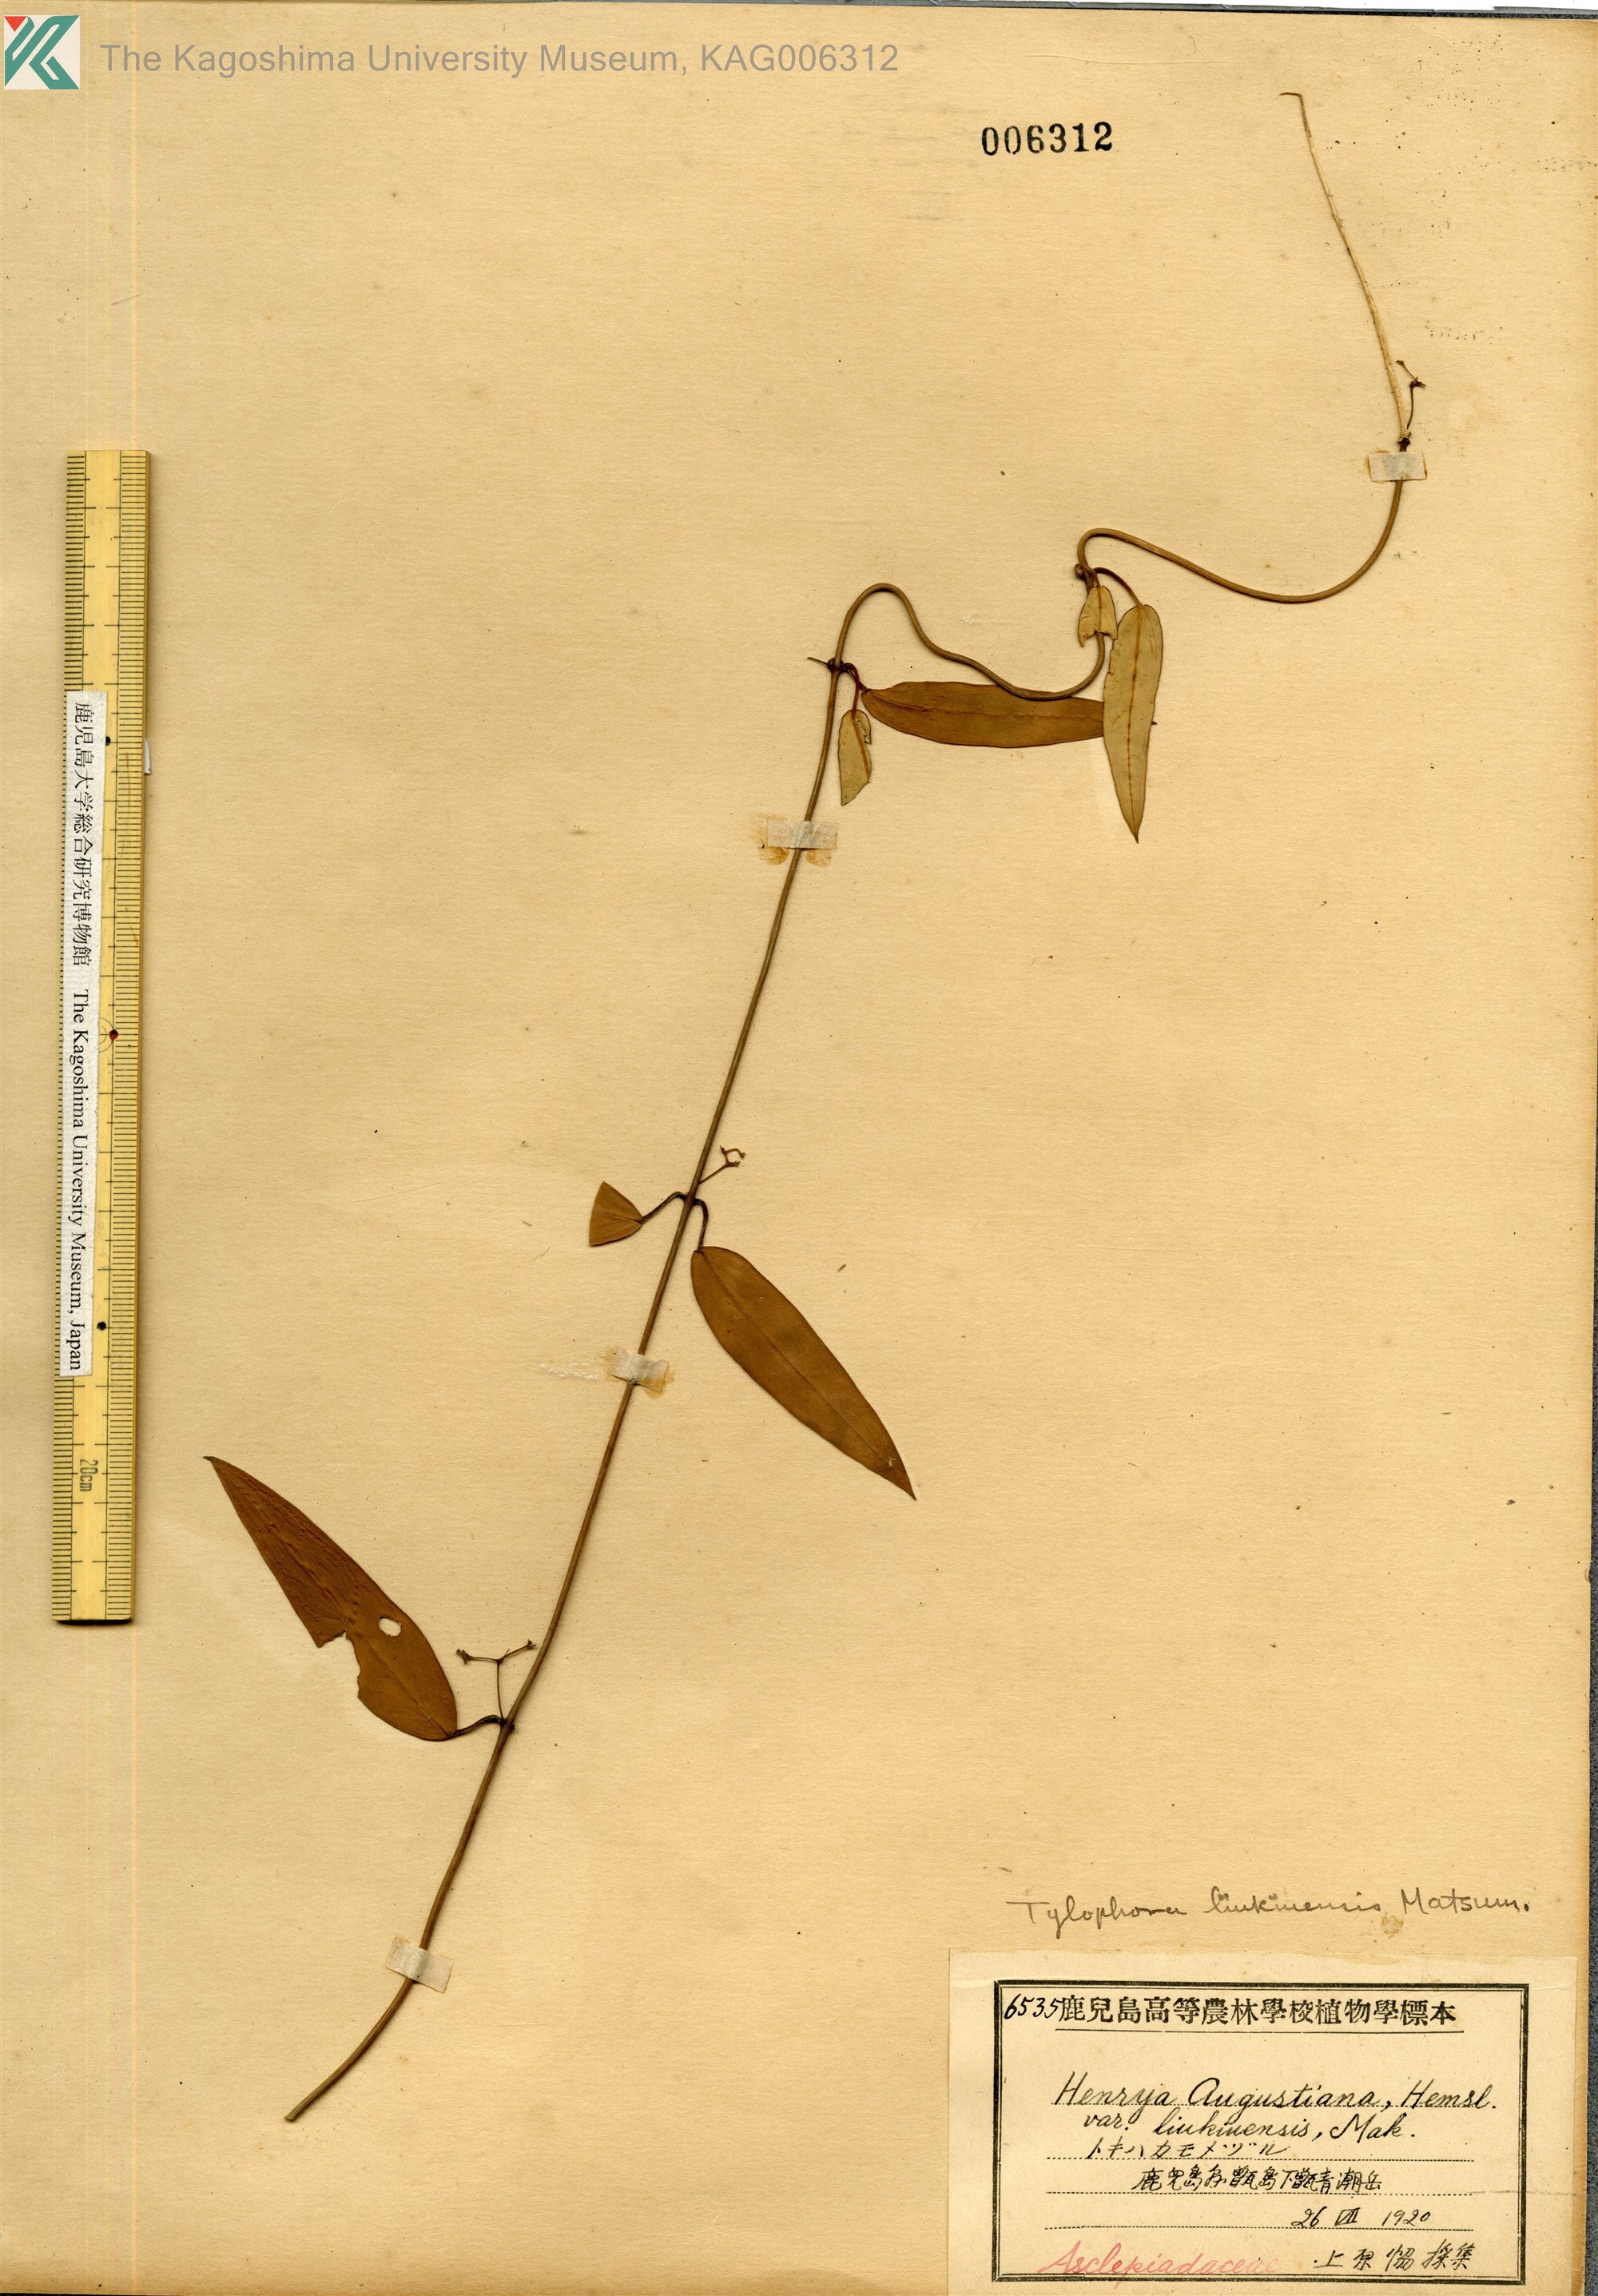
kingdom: Plantae
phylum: Tracheophyta
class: Magnoliopsida
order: Gentianales
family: Apocynaceae
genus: Vincetoxicum
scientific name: Vincetoxicum sieboldii
